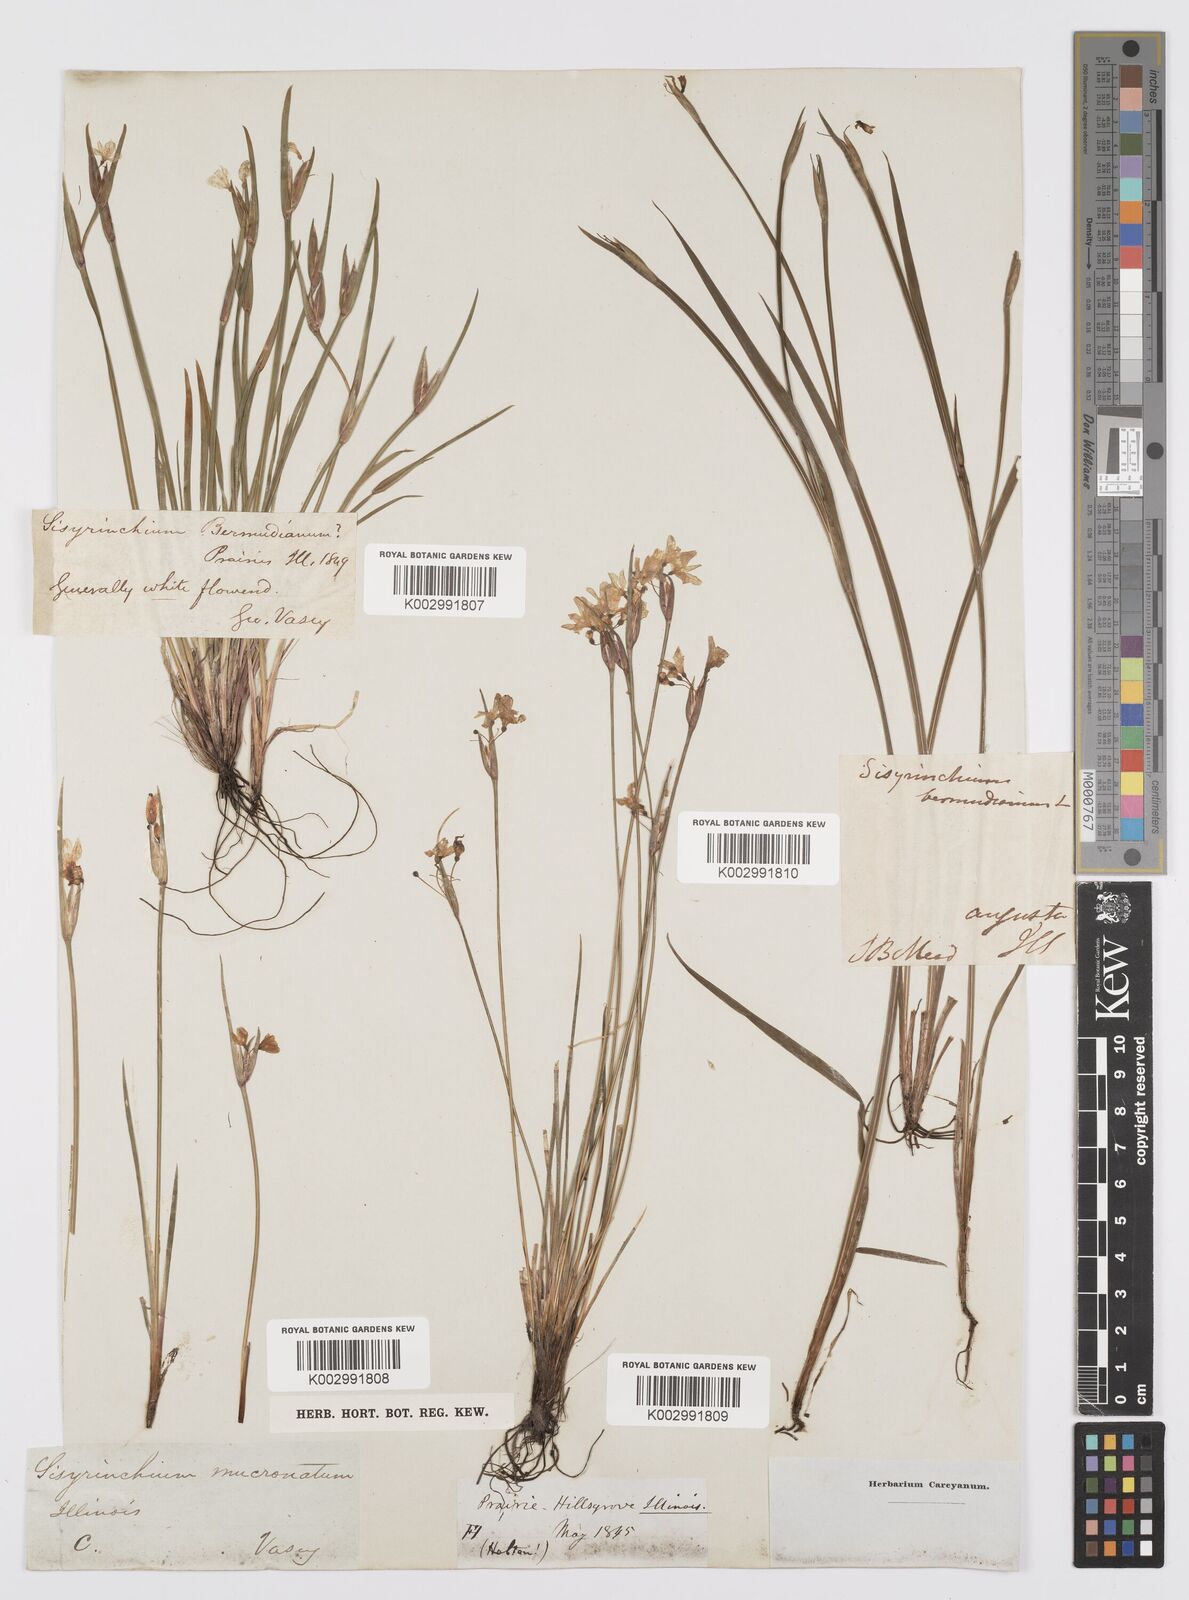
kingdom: Plantae
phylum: Tracheophyta
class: Liliopsida
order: Asparagales
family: Iridaceae
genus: Sisyrinchium
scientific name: Sisyrinchium bermudiana
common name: Blue-eyed-grass
